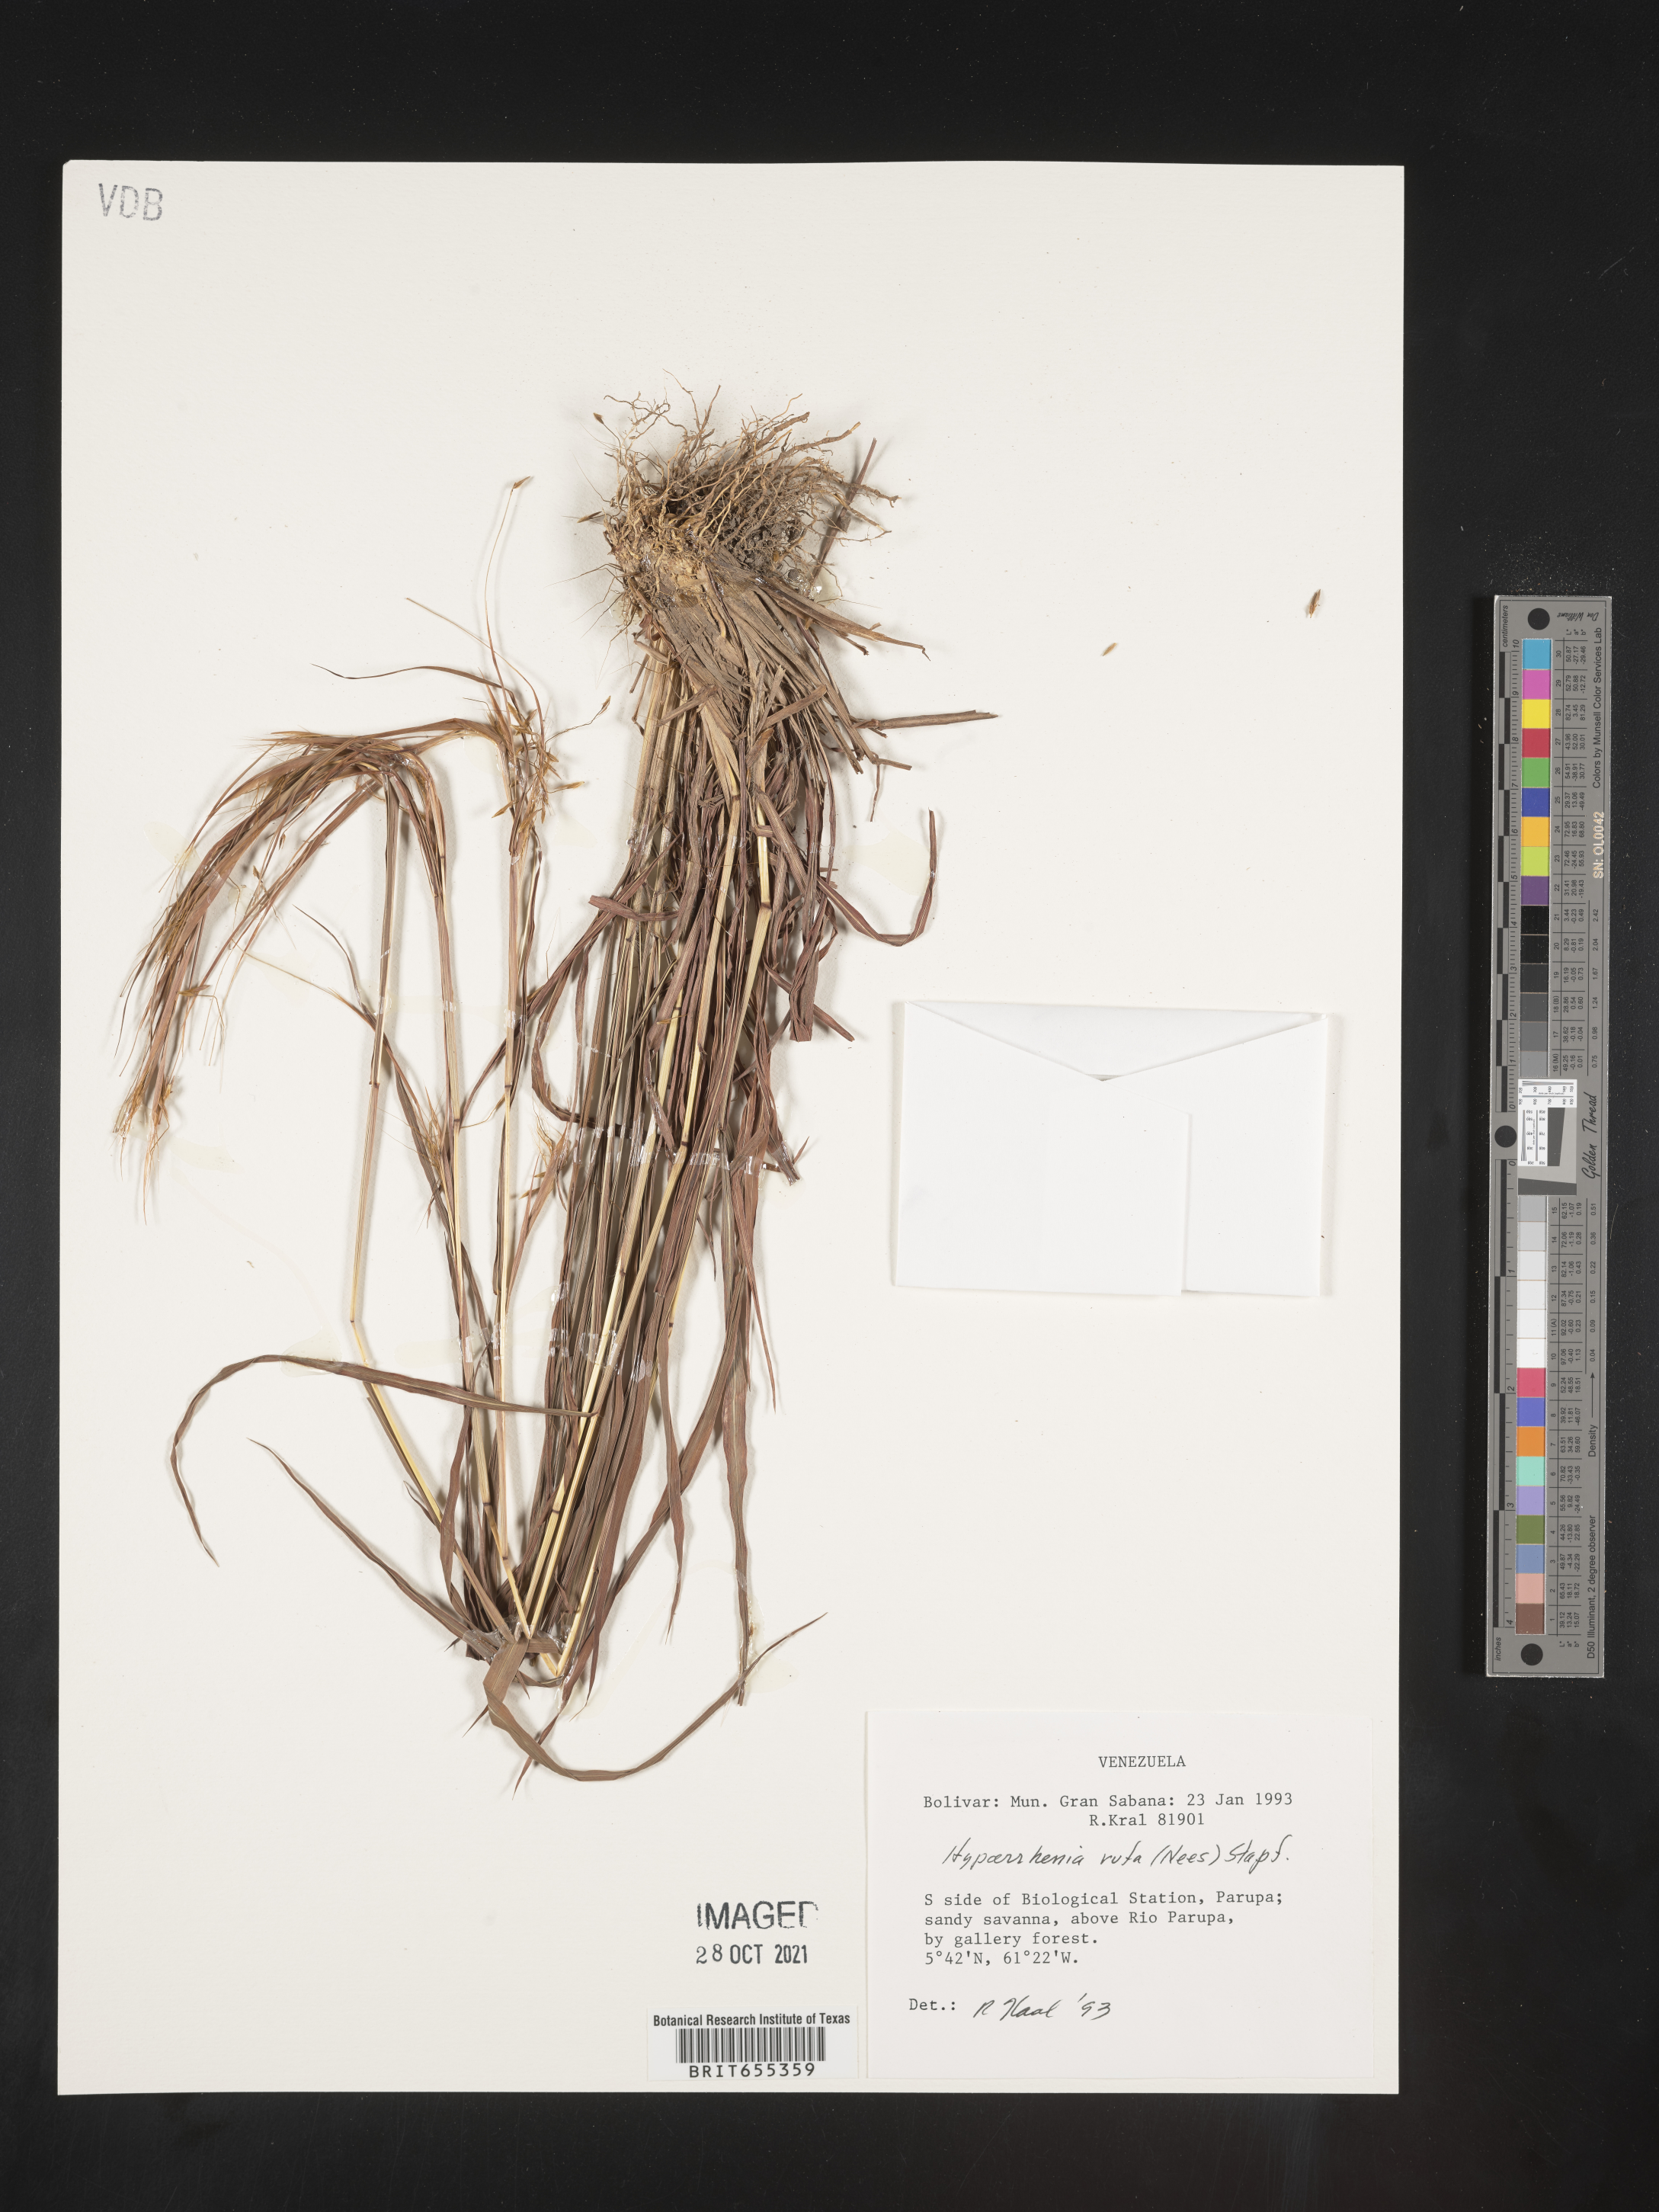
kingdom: Plantae
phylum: Tracheophyta
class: Liliopsida
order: Poales
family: Poaceae
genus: Hyparrhenia
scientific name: Hyparrhenia
